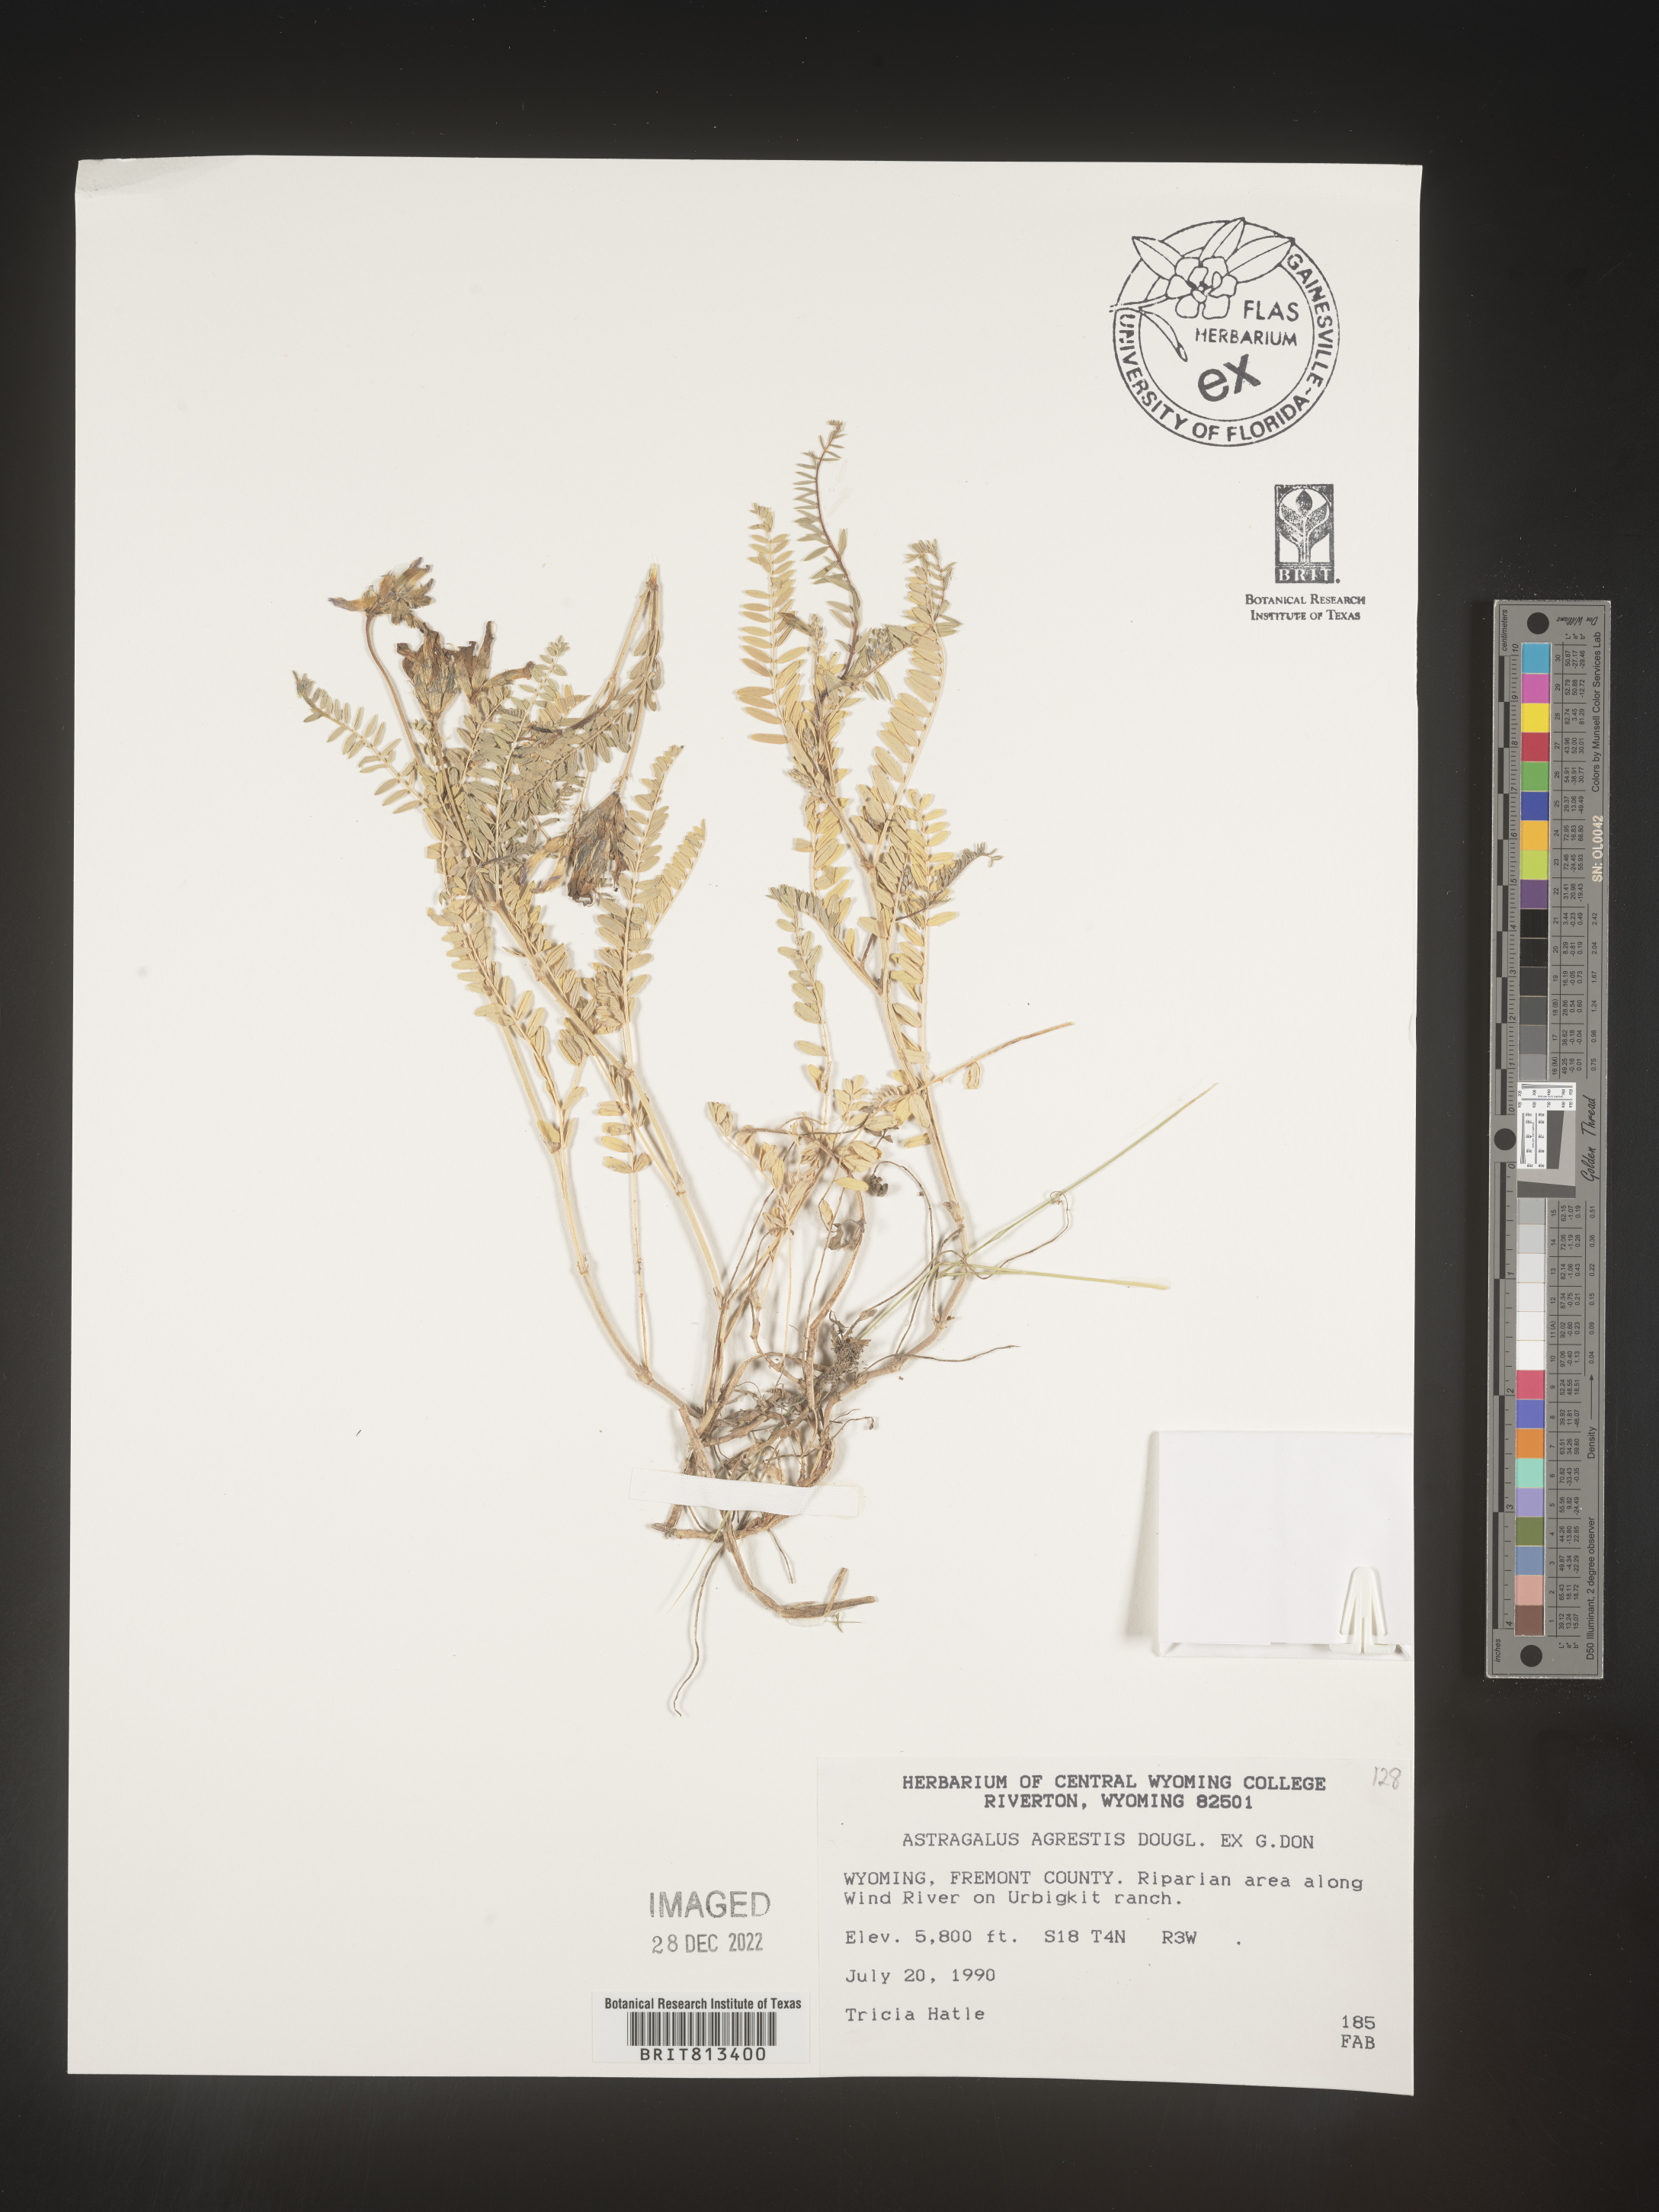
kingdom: Plantae
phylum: Tracheophyta
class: Magnoliopsida
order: Fabales
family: Fabaceae
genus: Astragalus
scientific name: Astragalus agrestis
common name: Field milk-vetch
